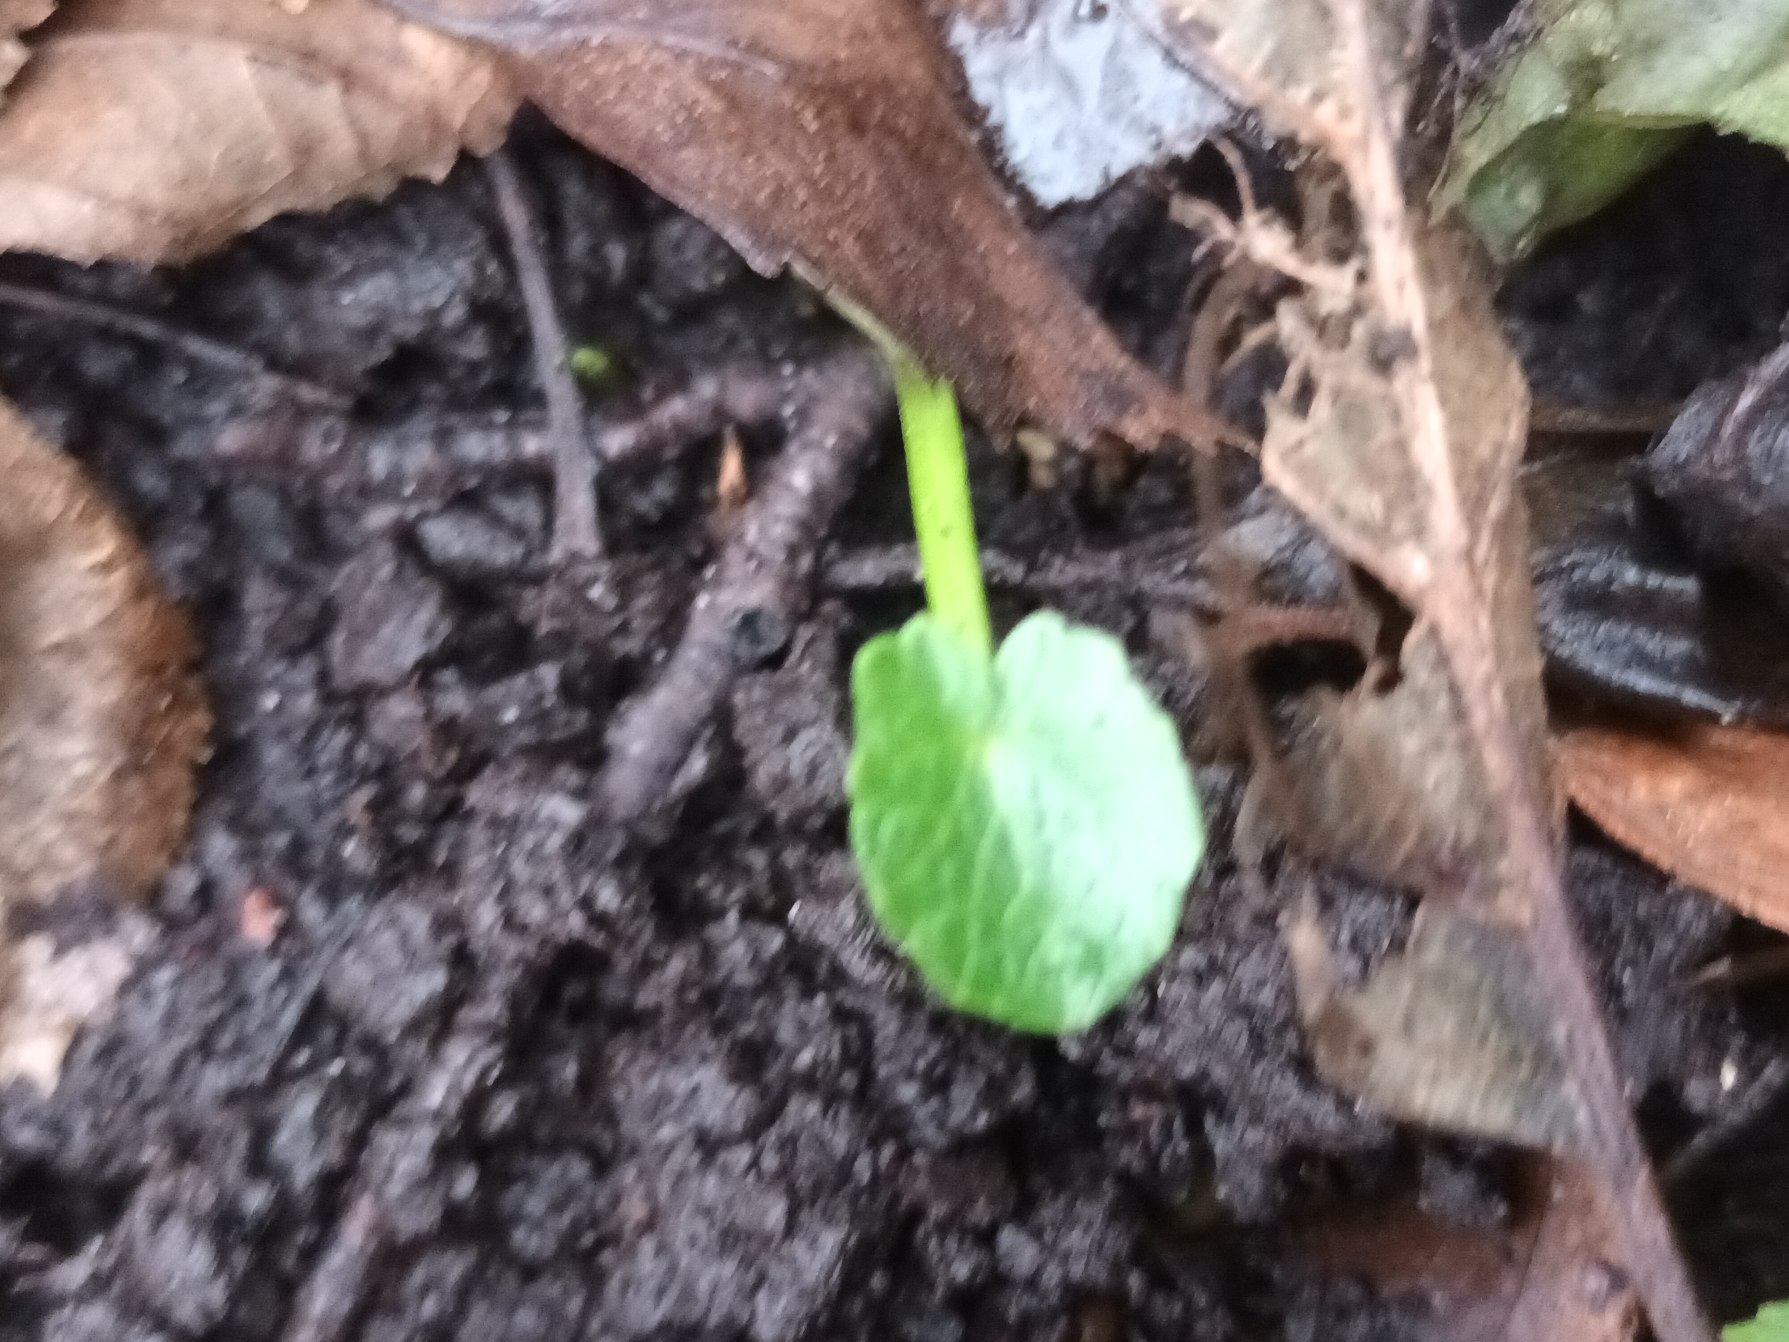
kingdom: Plantae
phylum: Tracheophyta
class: Magnoliopsida
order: Ranunculales
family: Ranunculaceae
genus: Ficaria
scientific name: Ficaria verna
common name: Vorterod
